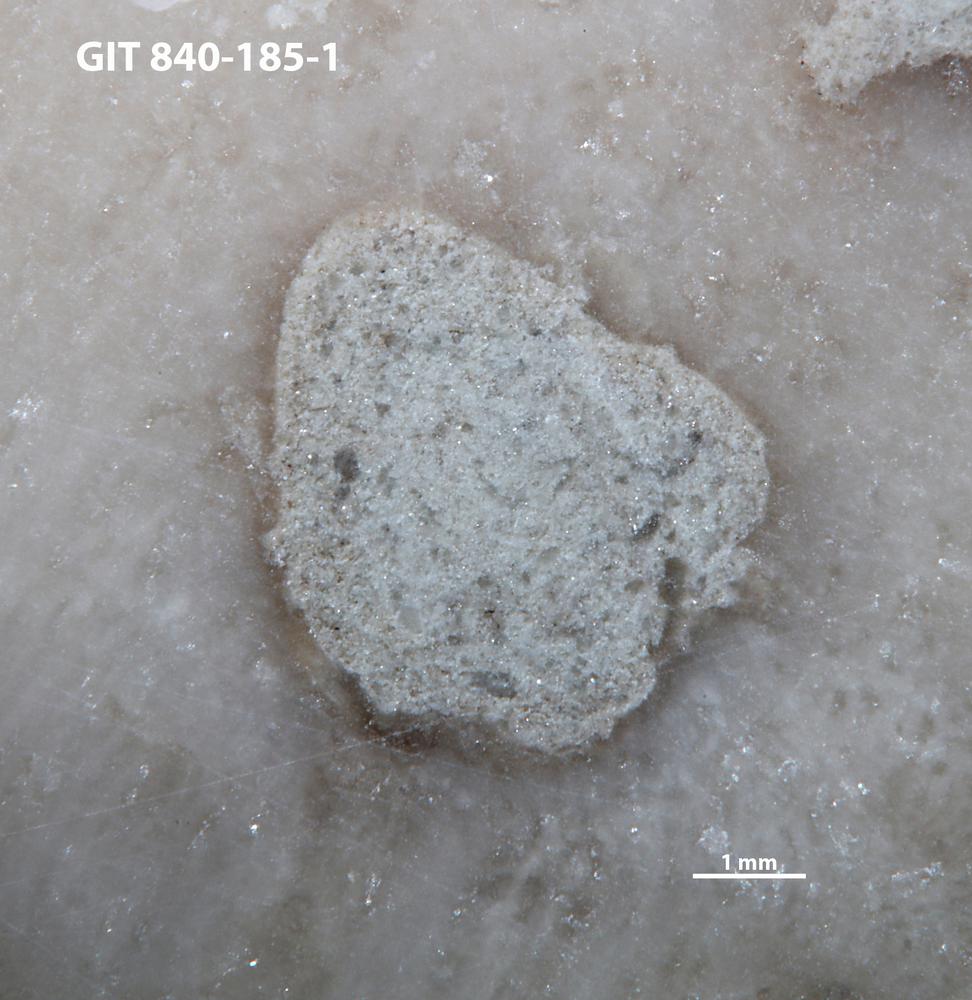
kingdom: Animalia
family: Cornulitidae
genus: Cornulites
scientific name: Cornulites
